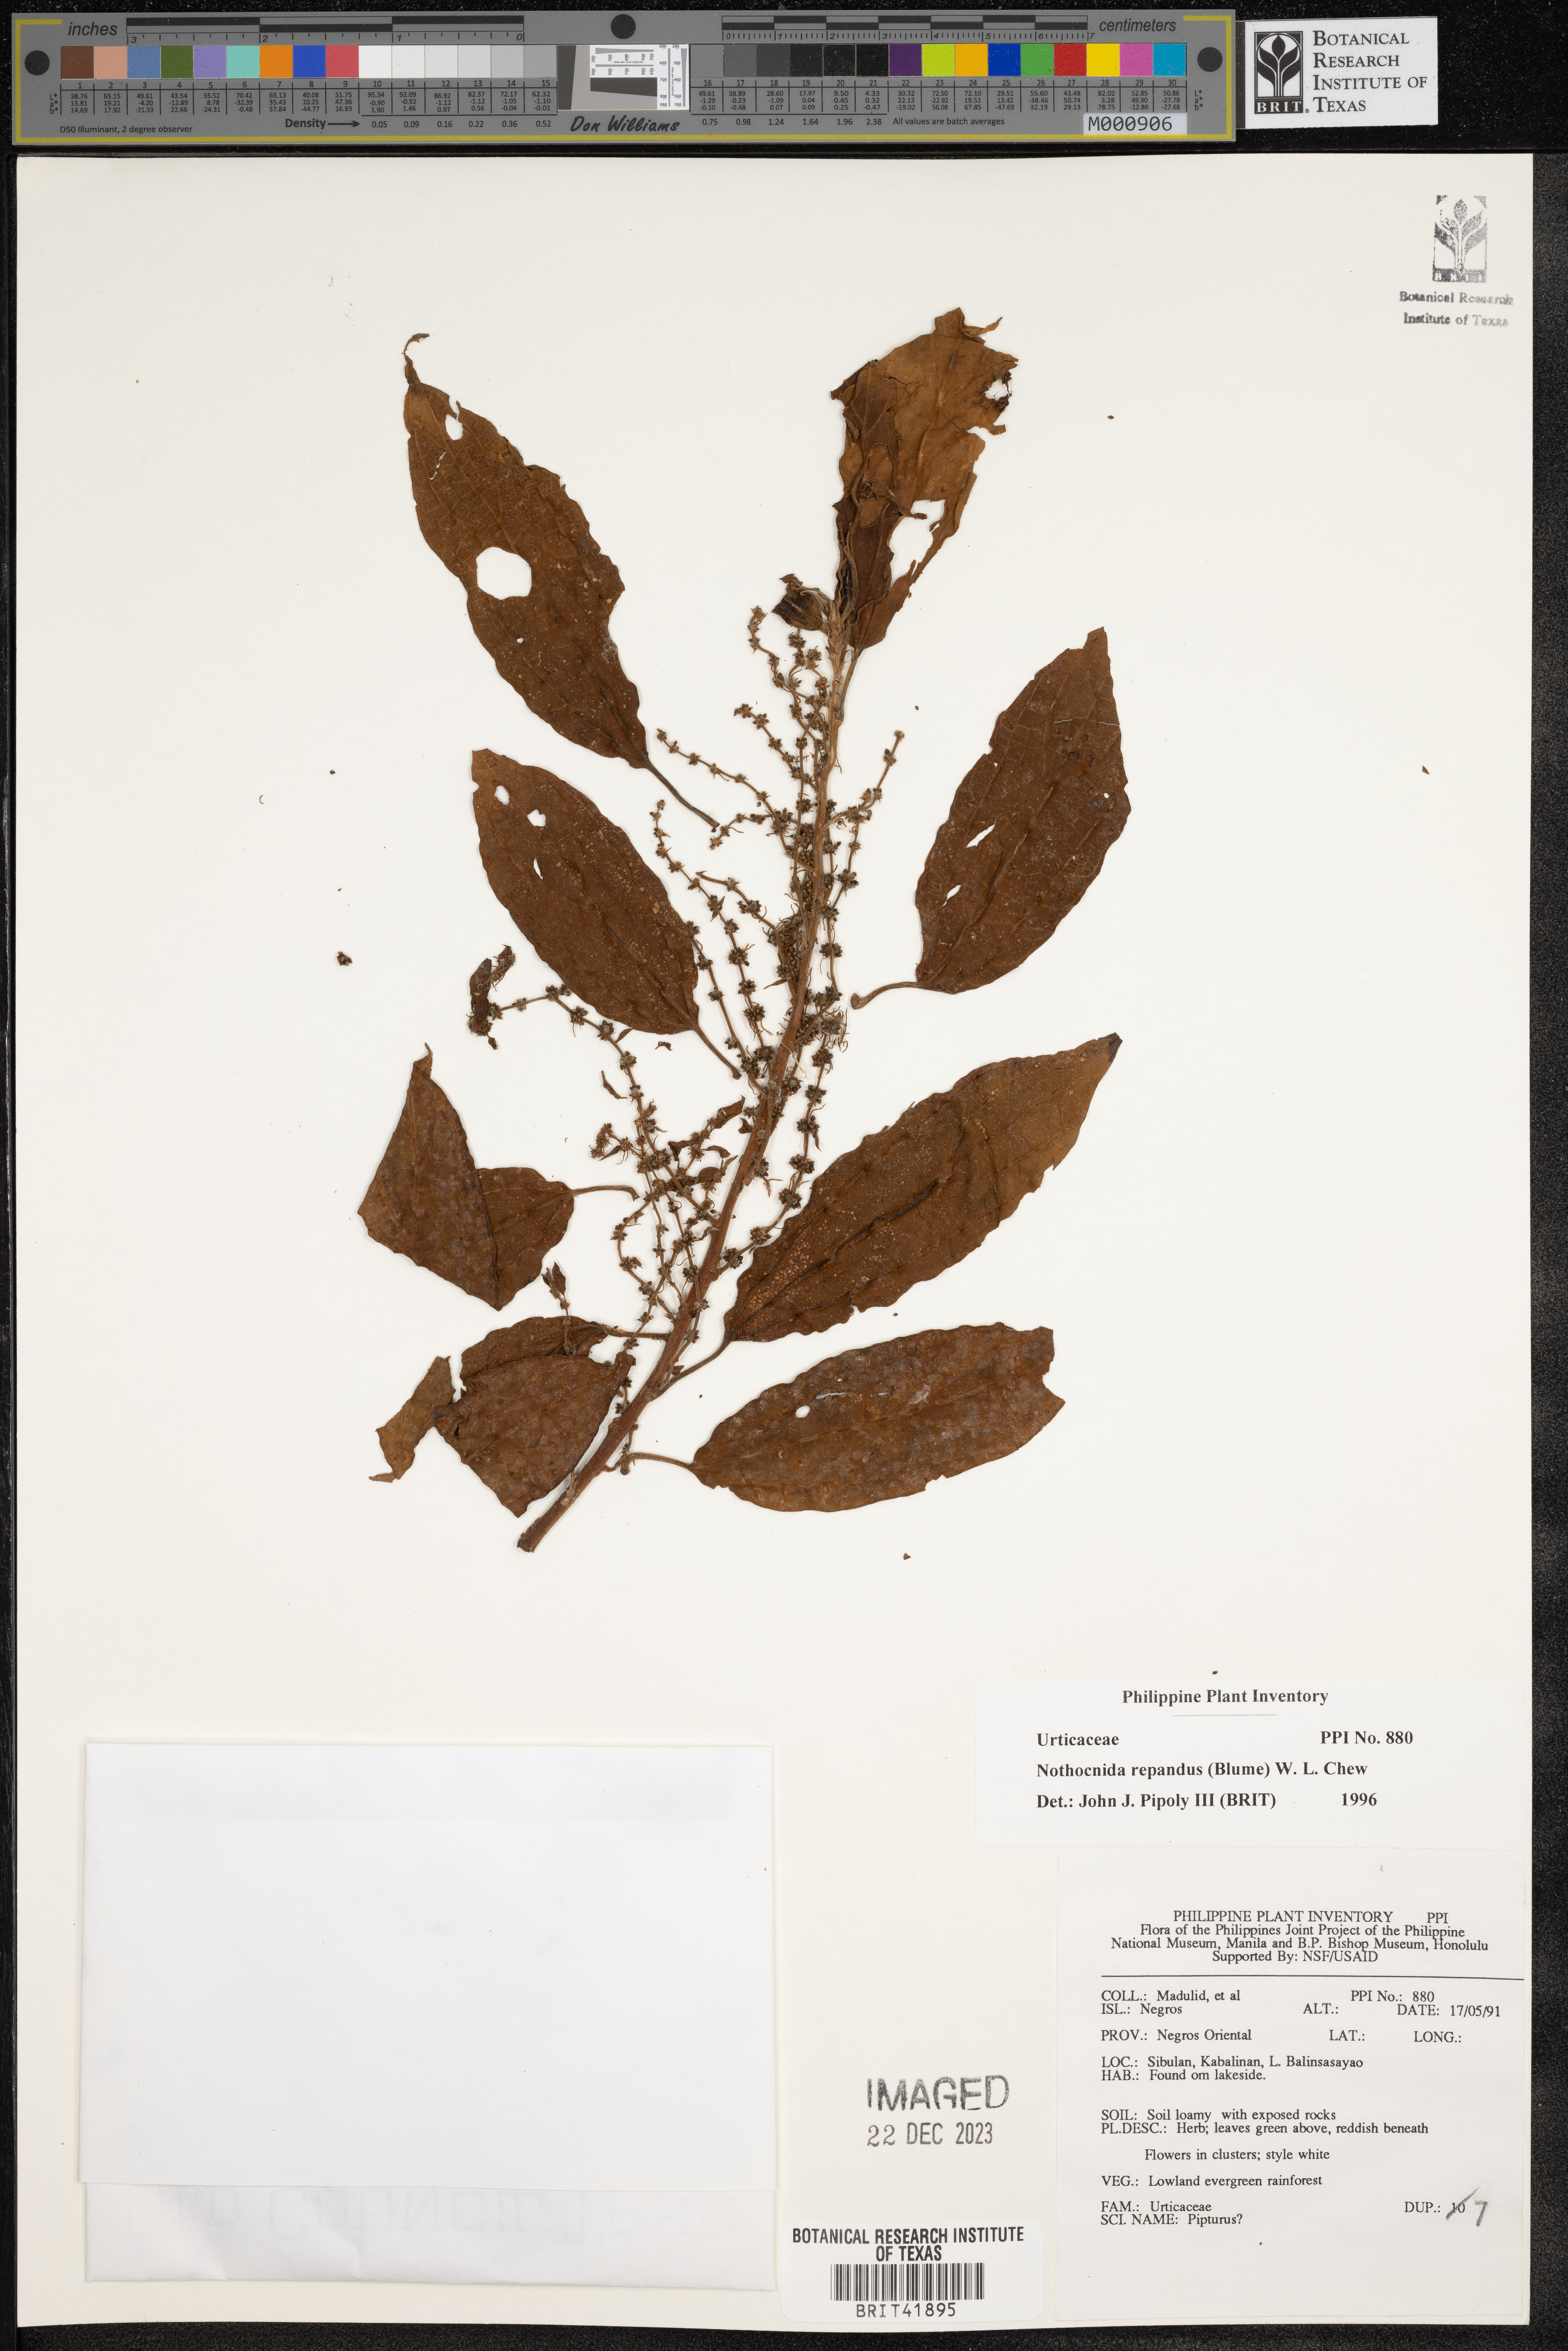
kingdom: Plantae
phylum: Tracheophyta
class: Magnoliopsida
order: Rosales
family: Urticaceae
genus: Nothocnide
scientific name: Nothocnide repanda
